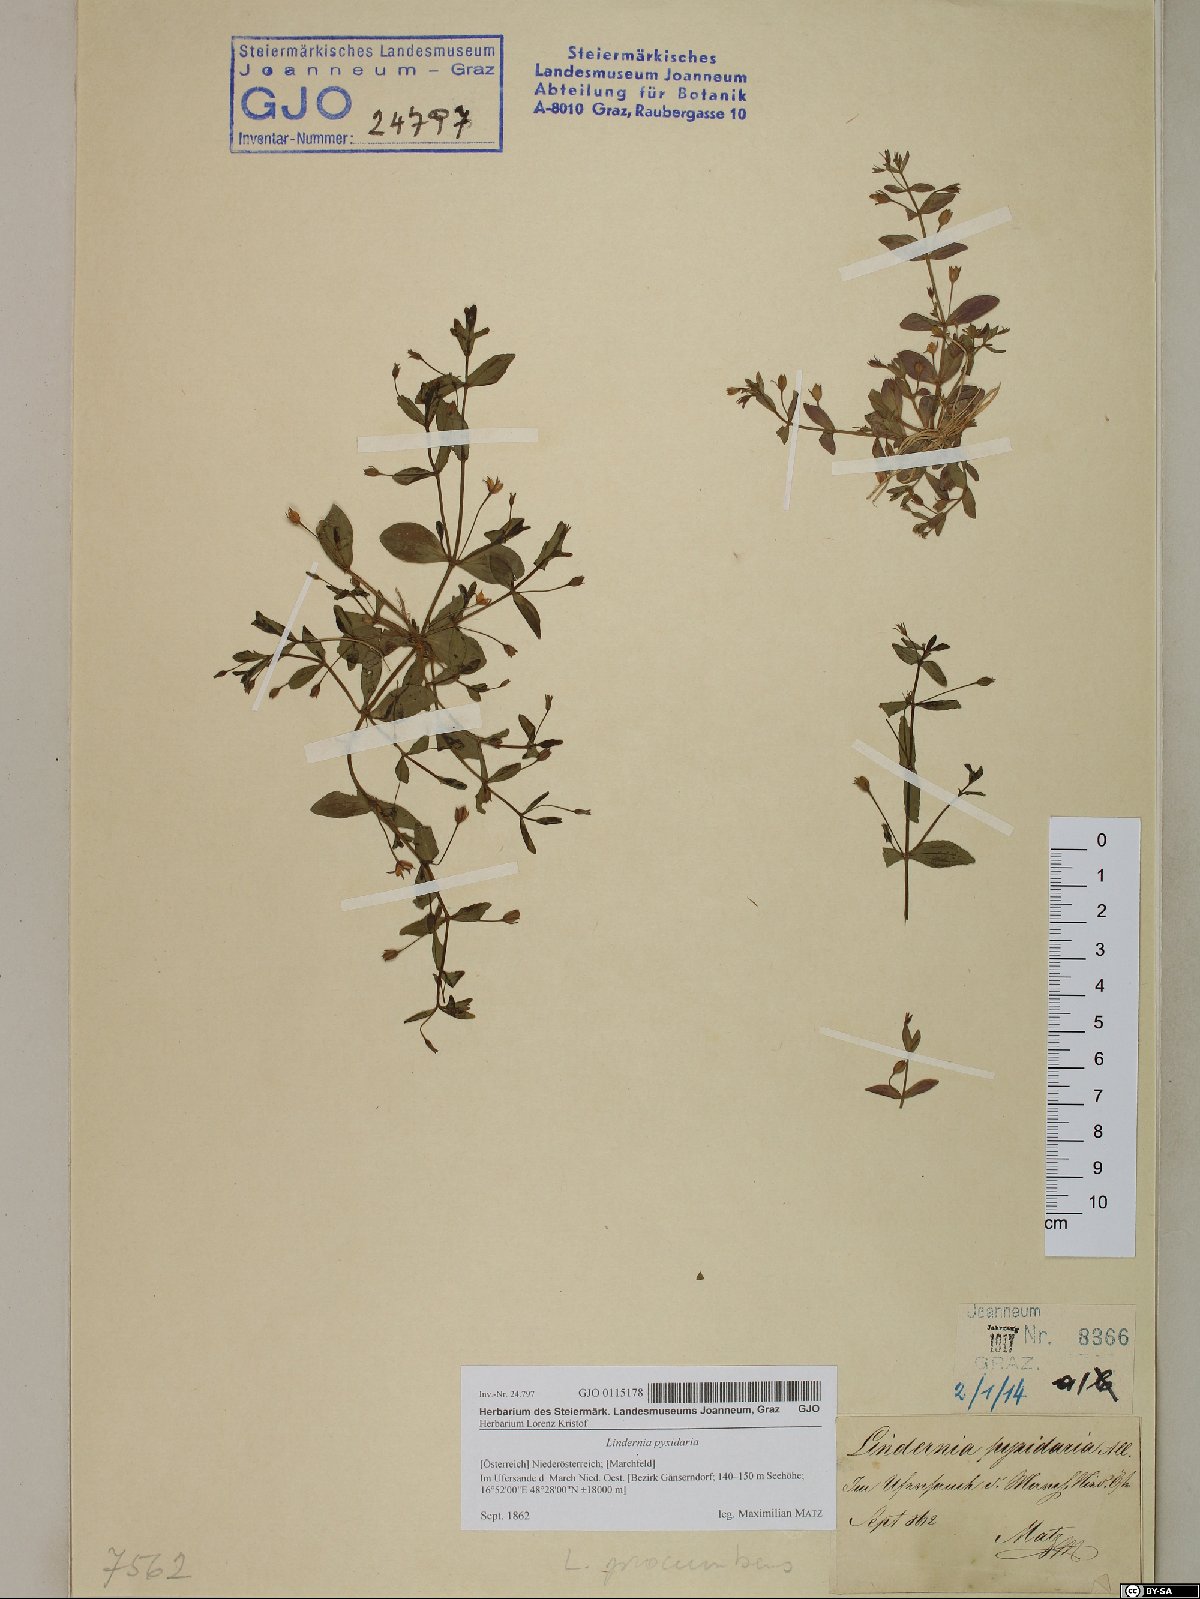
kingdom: Plantae
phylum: Tracheophyta
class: Magnoliopsida
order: Lamiales
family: Linderniaceae
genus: Lindernia
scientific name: Lindernia dubia
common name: Annual false pimpernel
